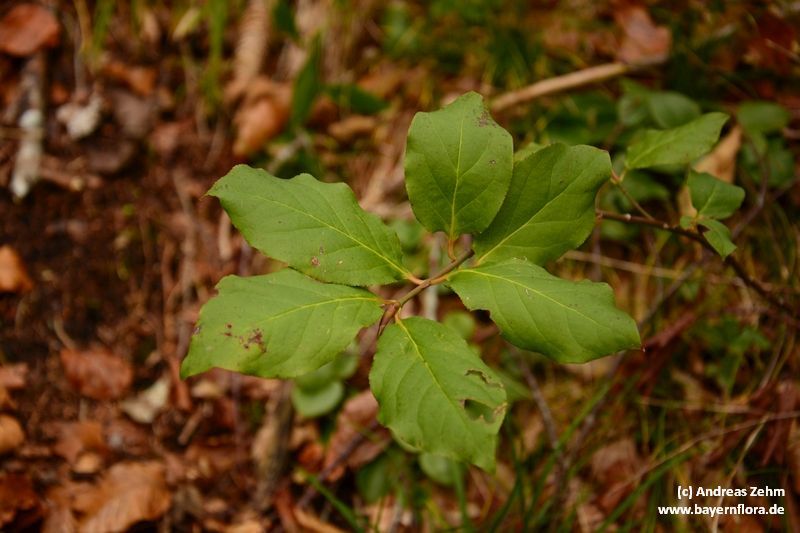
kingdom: Plantae
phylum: Tracheophyta
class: Magnoliopsida
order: Celastrales
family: Celastraceae
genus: Euonymus
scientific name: Euonymus latifolius
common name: Large-leaved spindle
